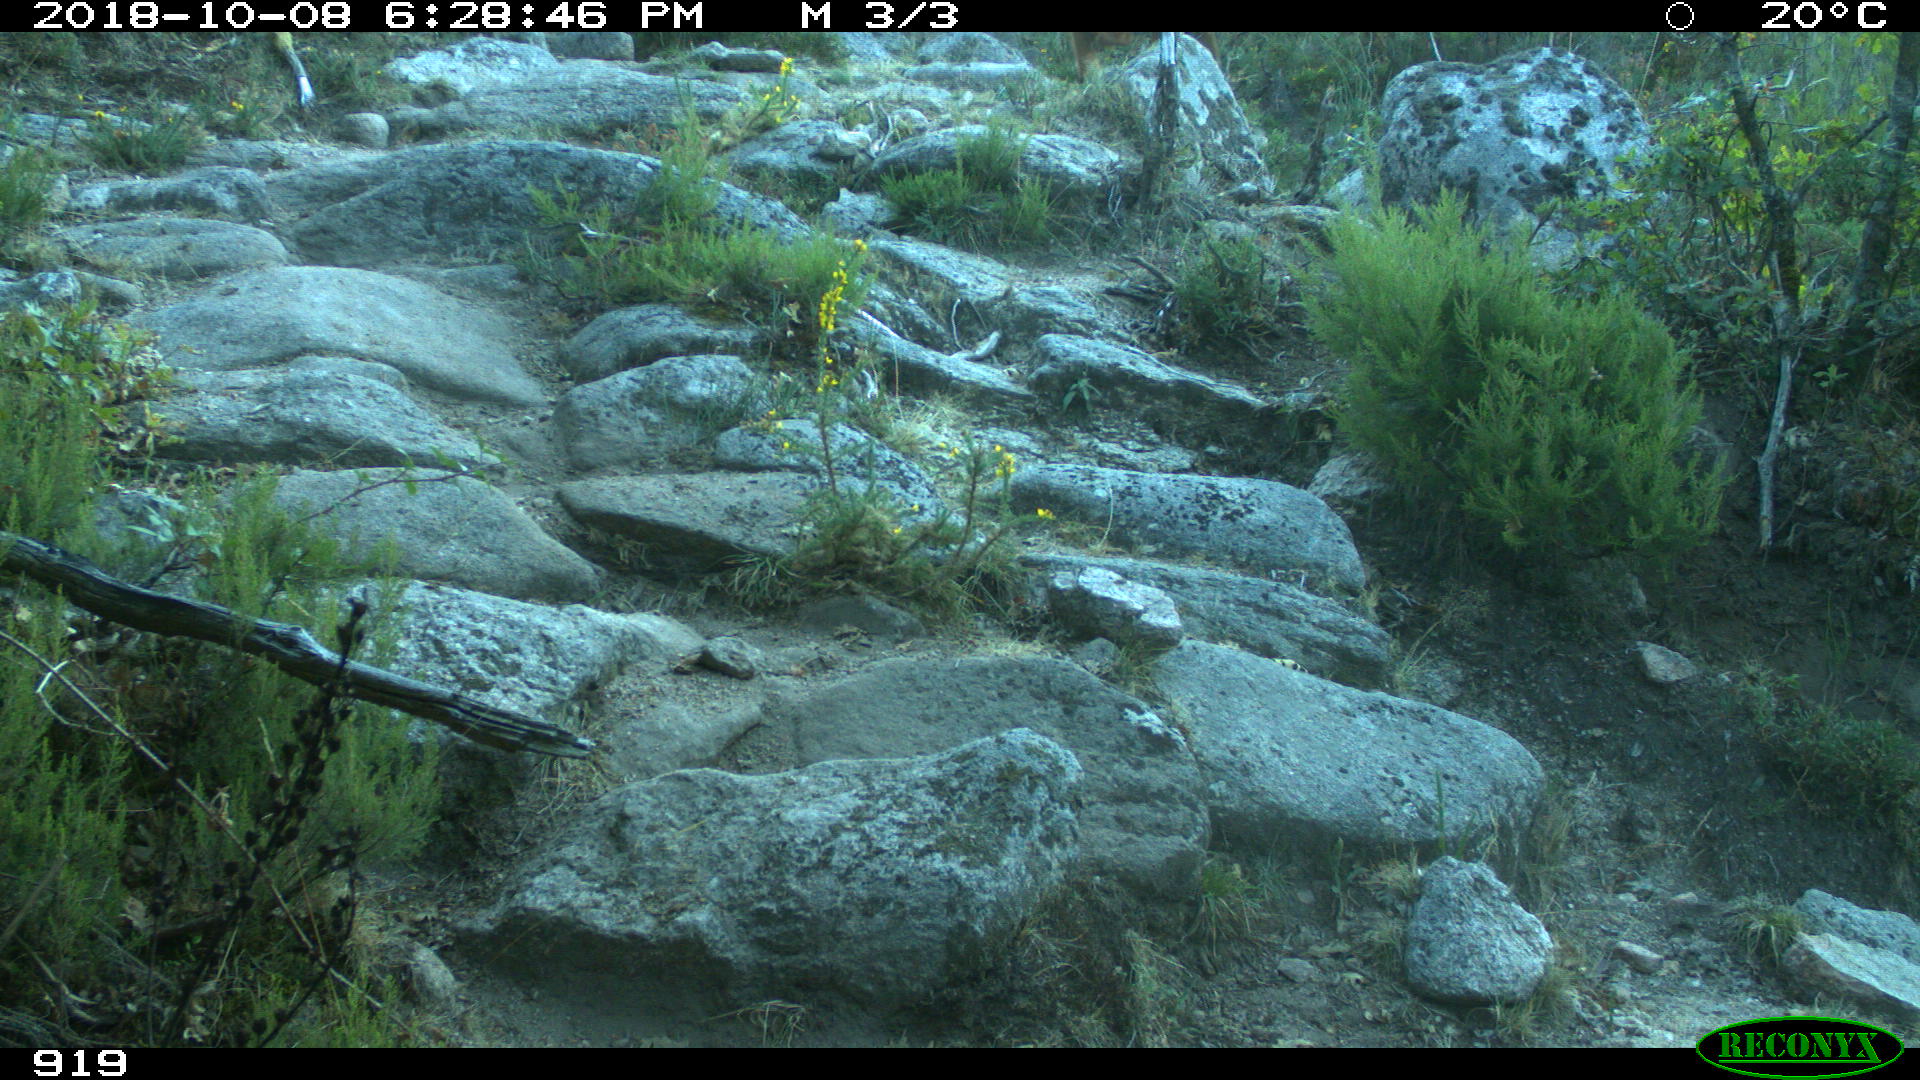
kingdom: Animalia
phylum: Chordata
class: Mammalia
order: Artiodactyla
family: Bovidae
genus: Bos
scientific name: Bos taurus
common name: Domesticated cattle
